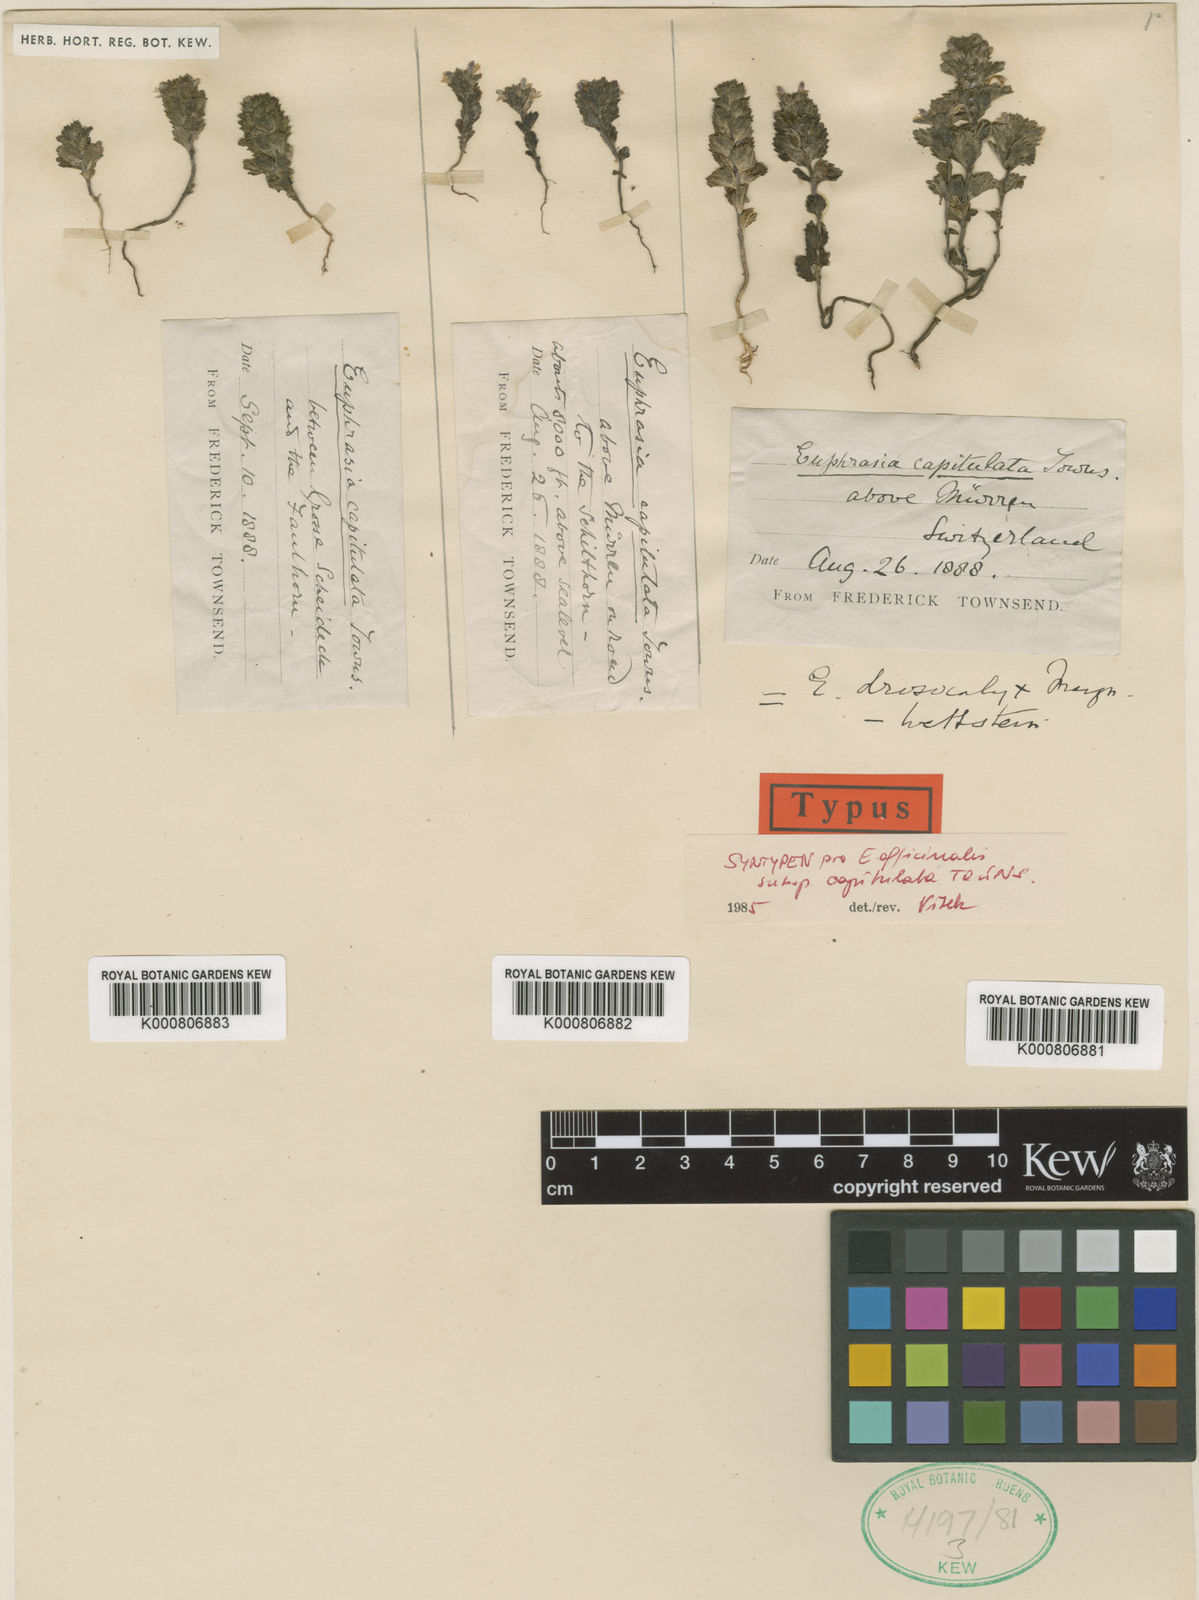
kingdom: Plantae
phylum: Tracheophyta
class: Magnoliopsida
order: Lamiales
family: Orobanchaceae
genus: Euphrasia
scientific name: Euphrasia drosocalyx
